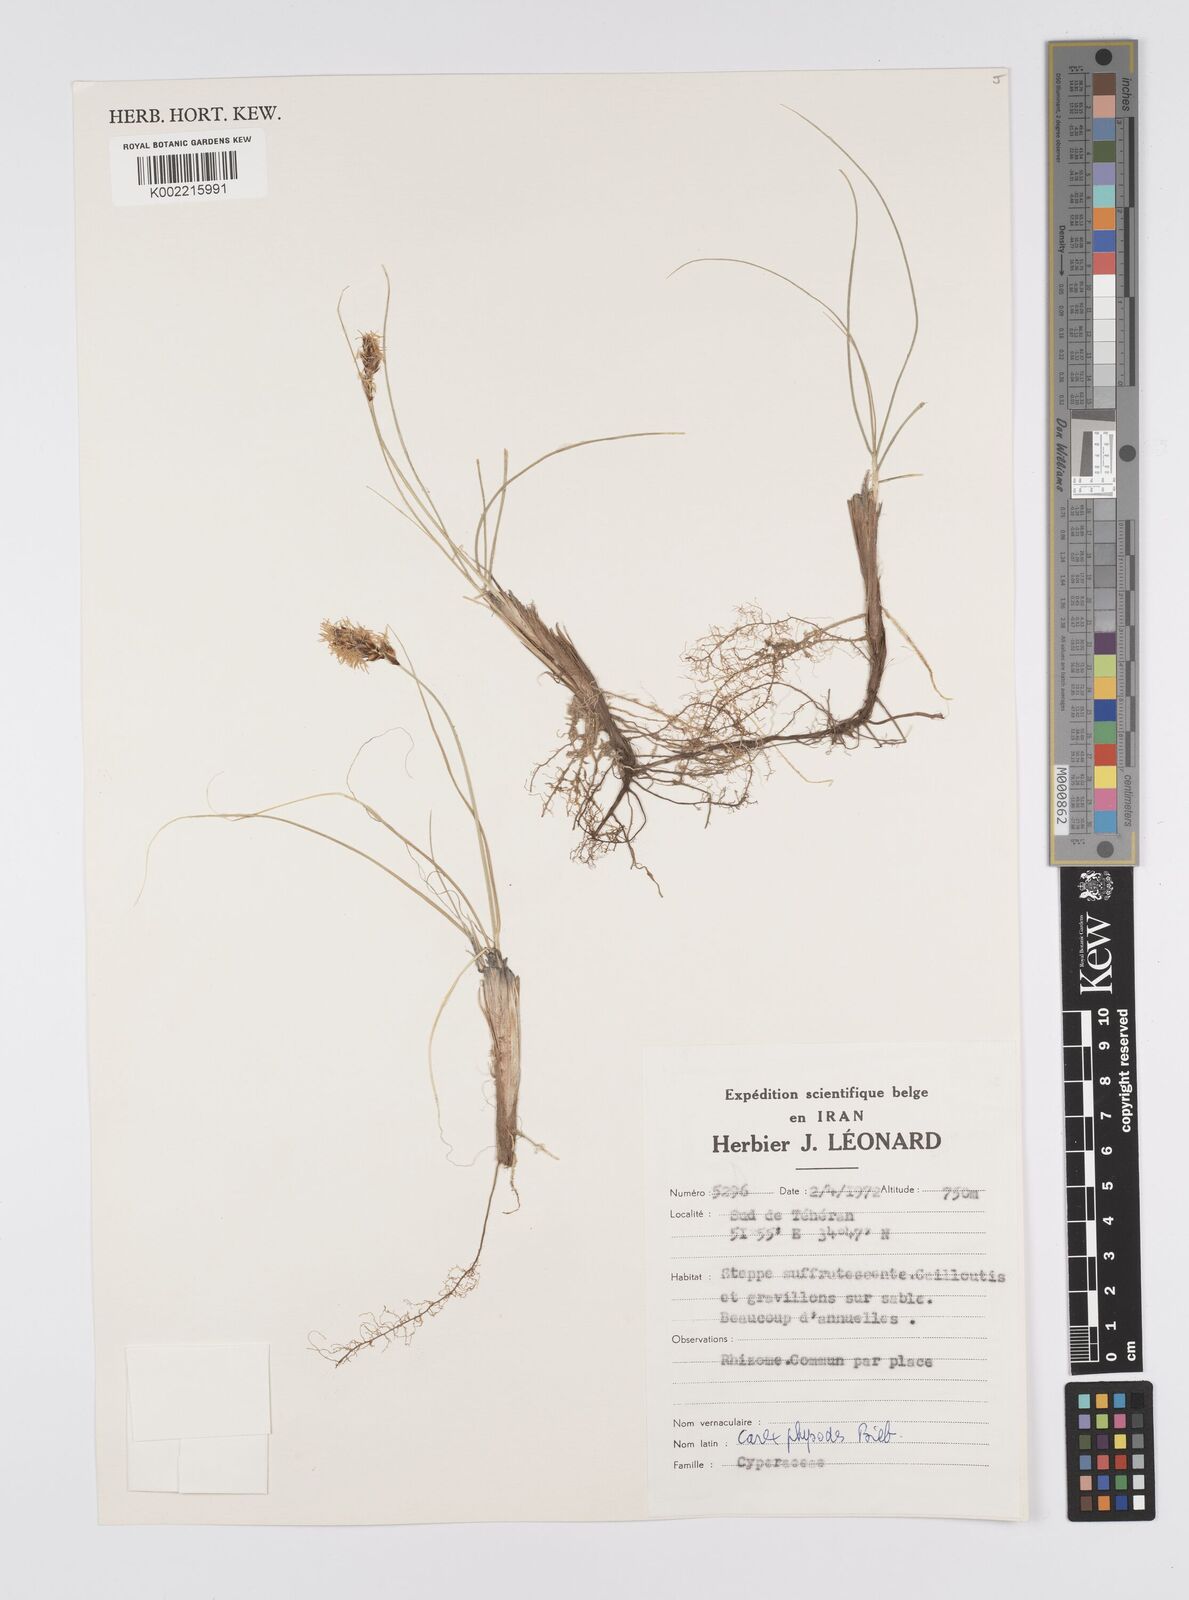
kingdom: Plantae
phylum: Tracheophyta
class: Liliopsida
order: Poales
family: Cyperaceae
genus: Carex
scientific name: Carex physodes
